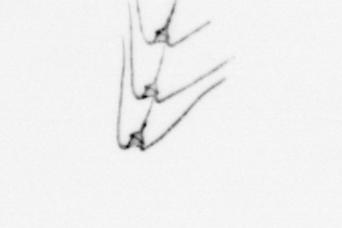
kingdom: Chromista
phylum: Myzozoa
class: Dinophyceae
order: Gonyaulacales
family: Ceratiaceae
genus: Ceratium
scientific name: Ceratium
